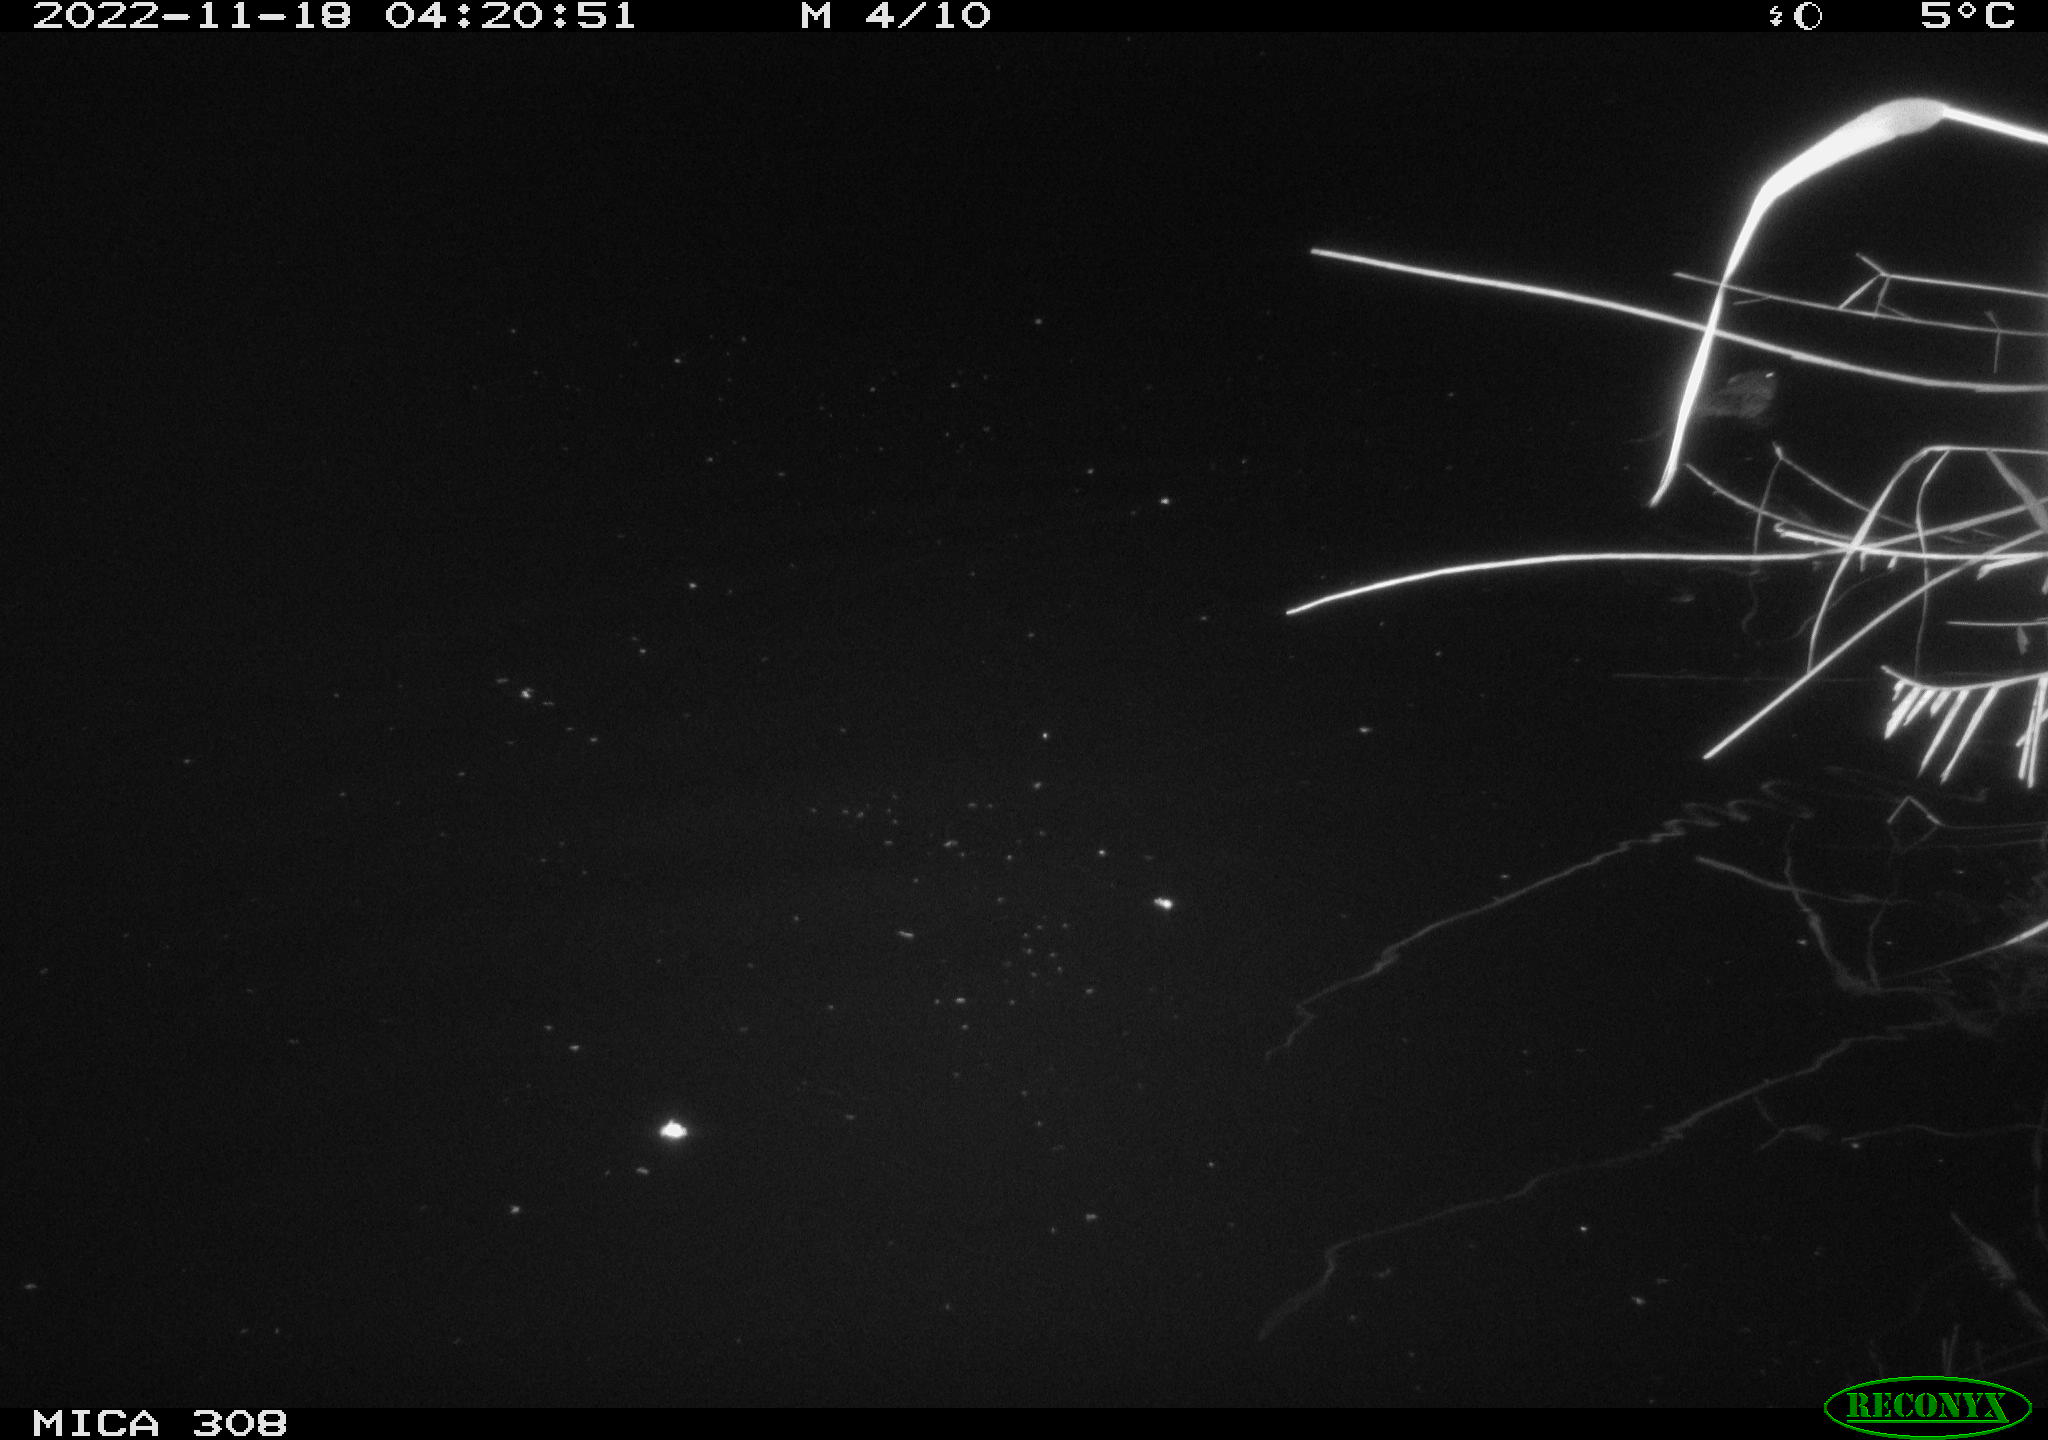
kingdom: Animalia
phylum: Chordata
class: Mammalia
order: Rodentia
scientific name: Rodentia
